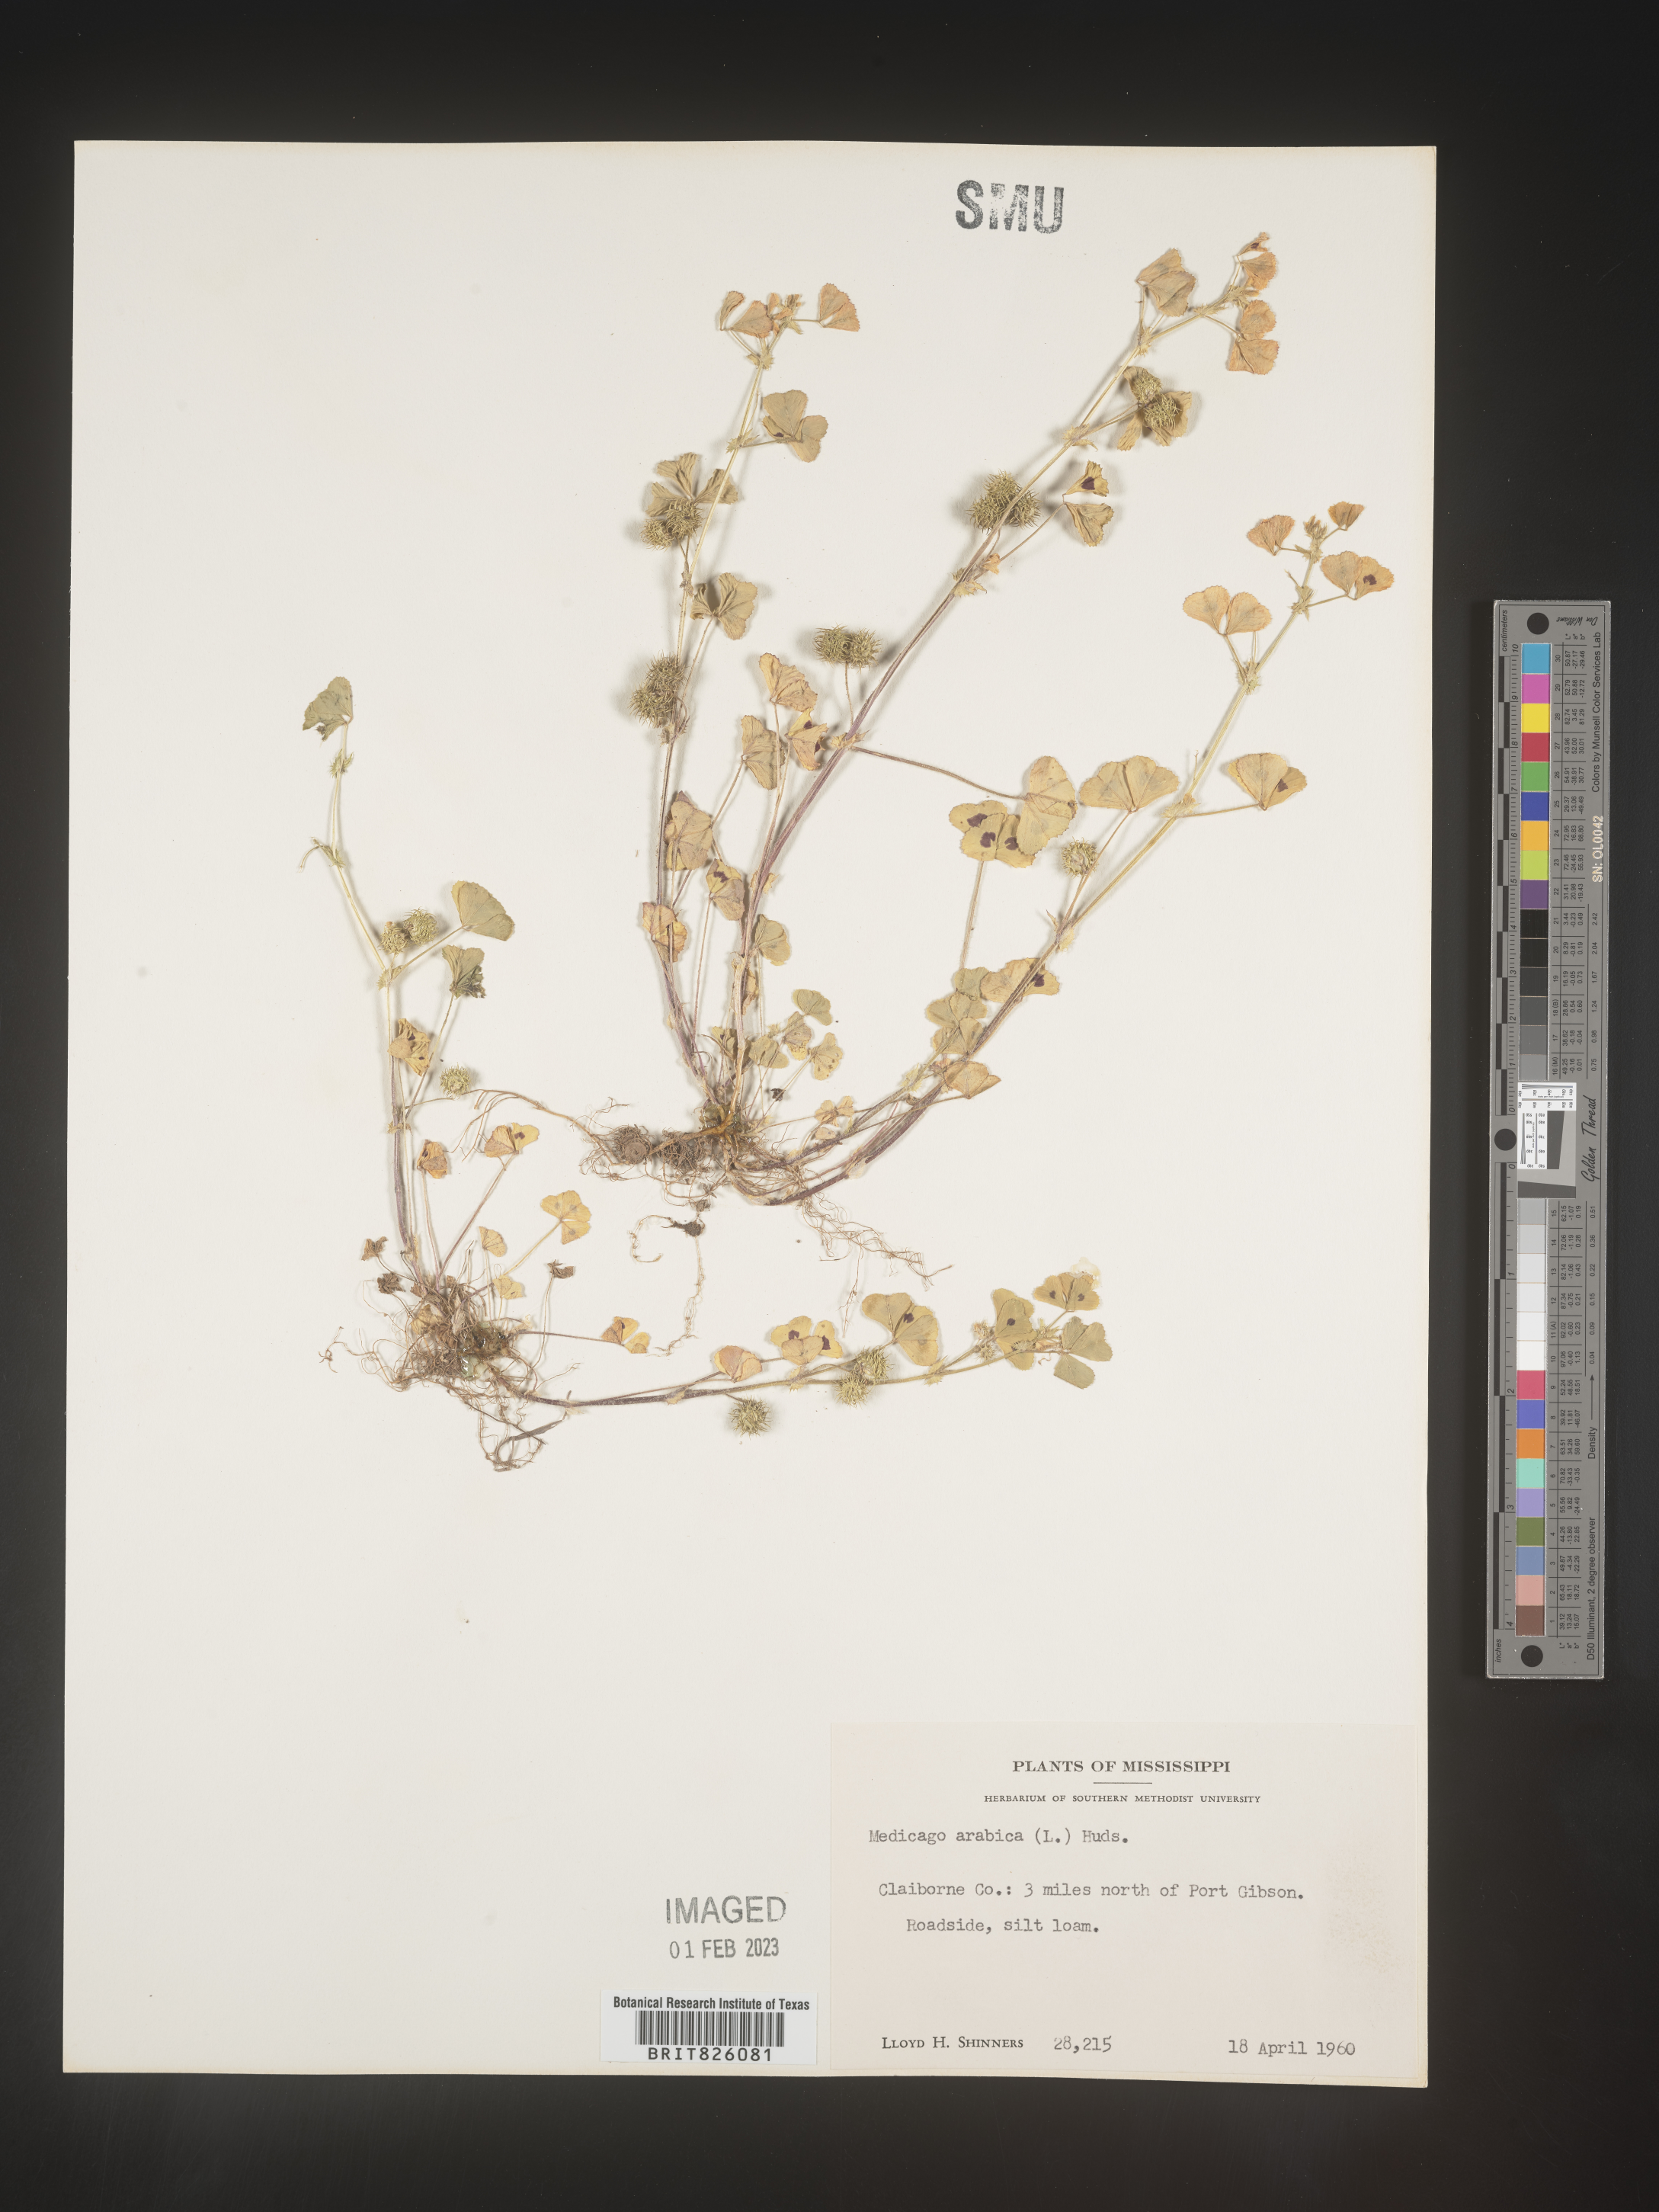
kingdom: Plantae
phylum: Tracheophyta
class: Magnoliopsida
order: Fabales
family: Fabaceae
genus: Medicago
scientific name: Medicago arabica
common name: Spotted medick
